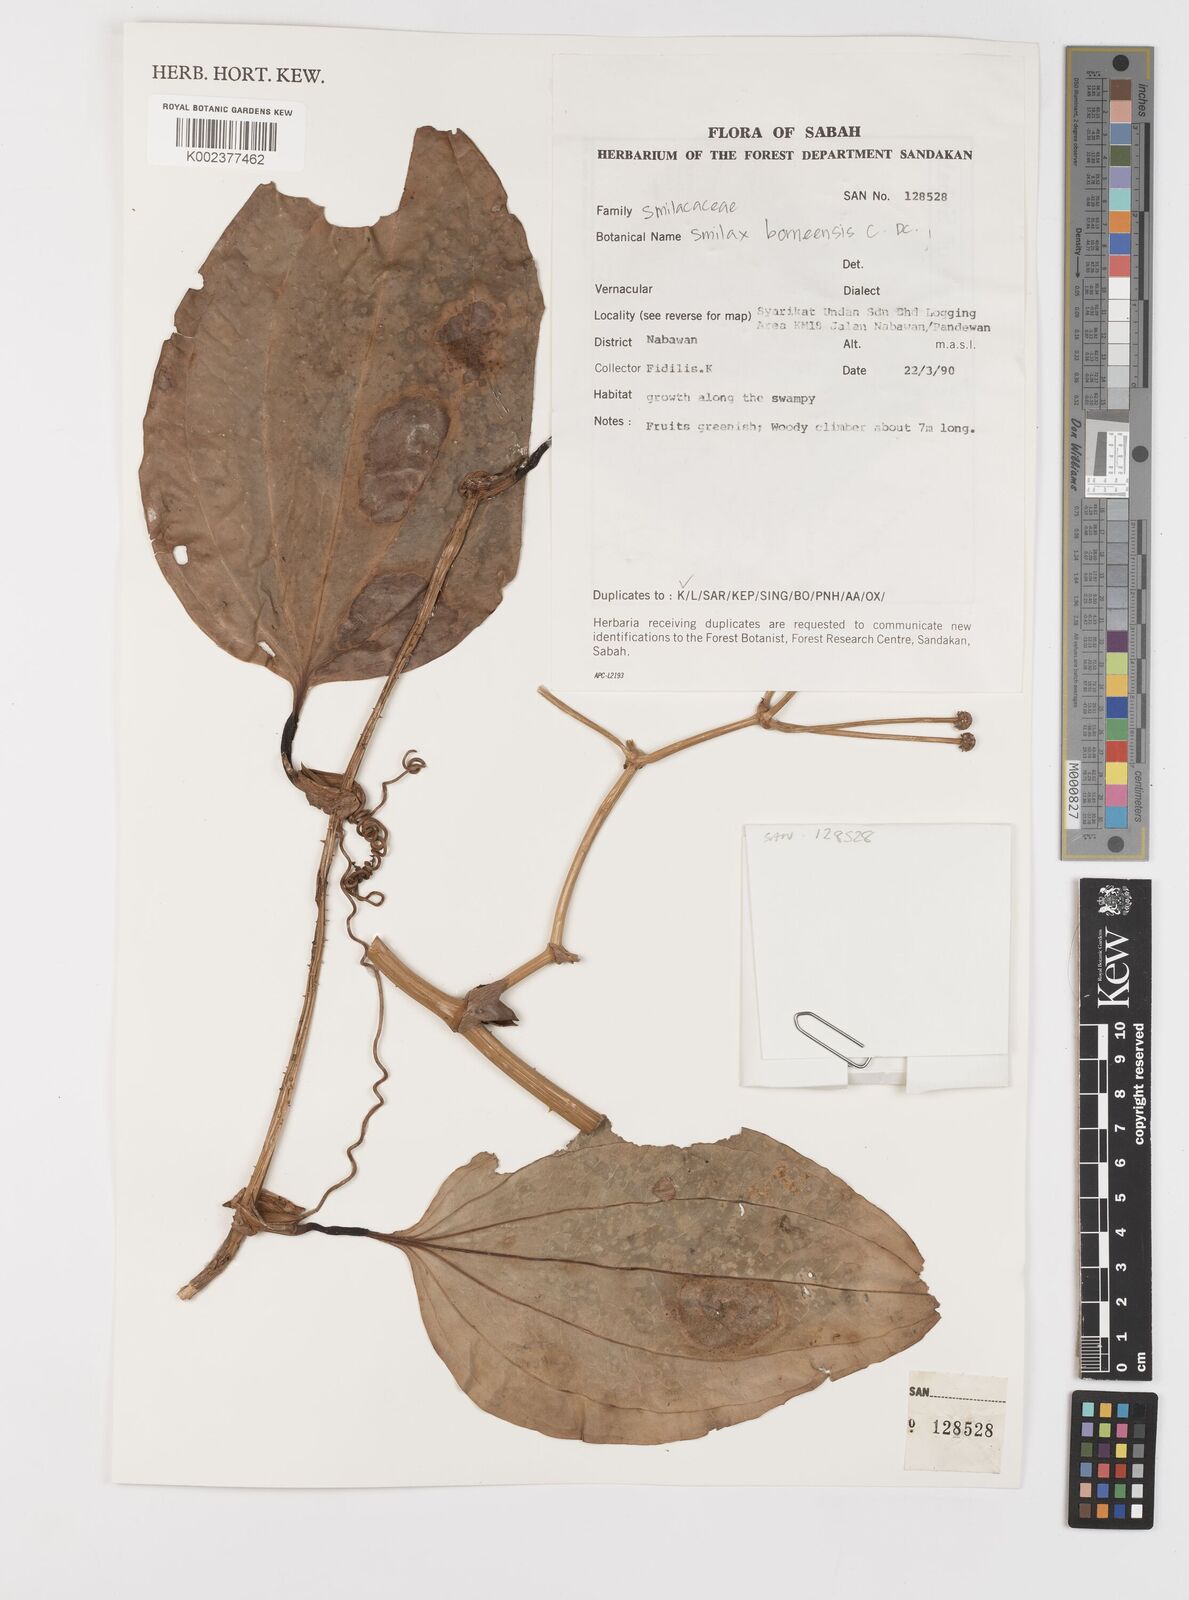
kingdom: Plantae
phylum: Tracheophyta
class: Liliopsida
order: Liliales
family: Smilacaceae
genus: Smilax
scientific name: Smilax borneensis
